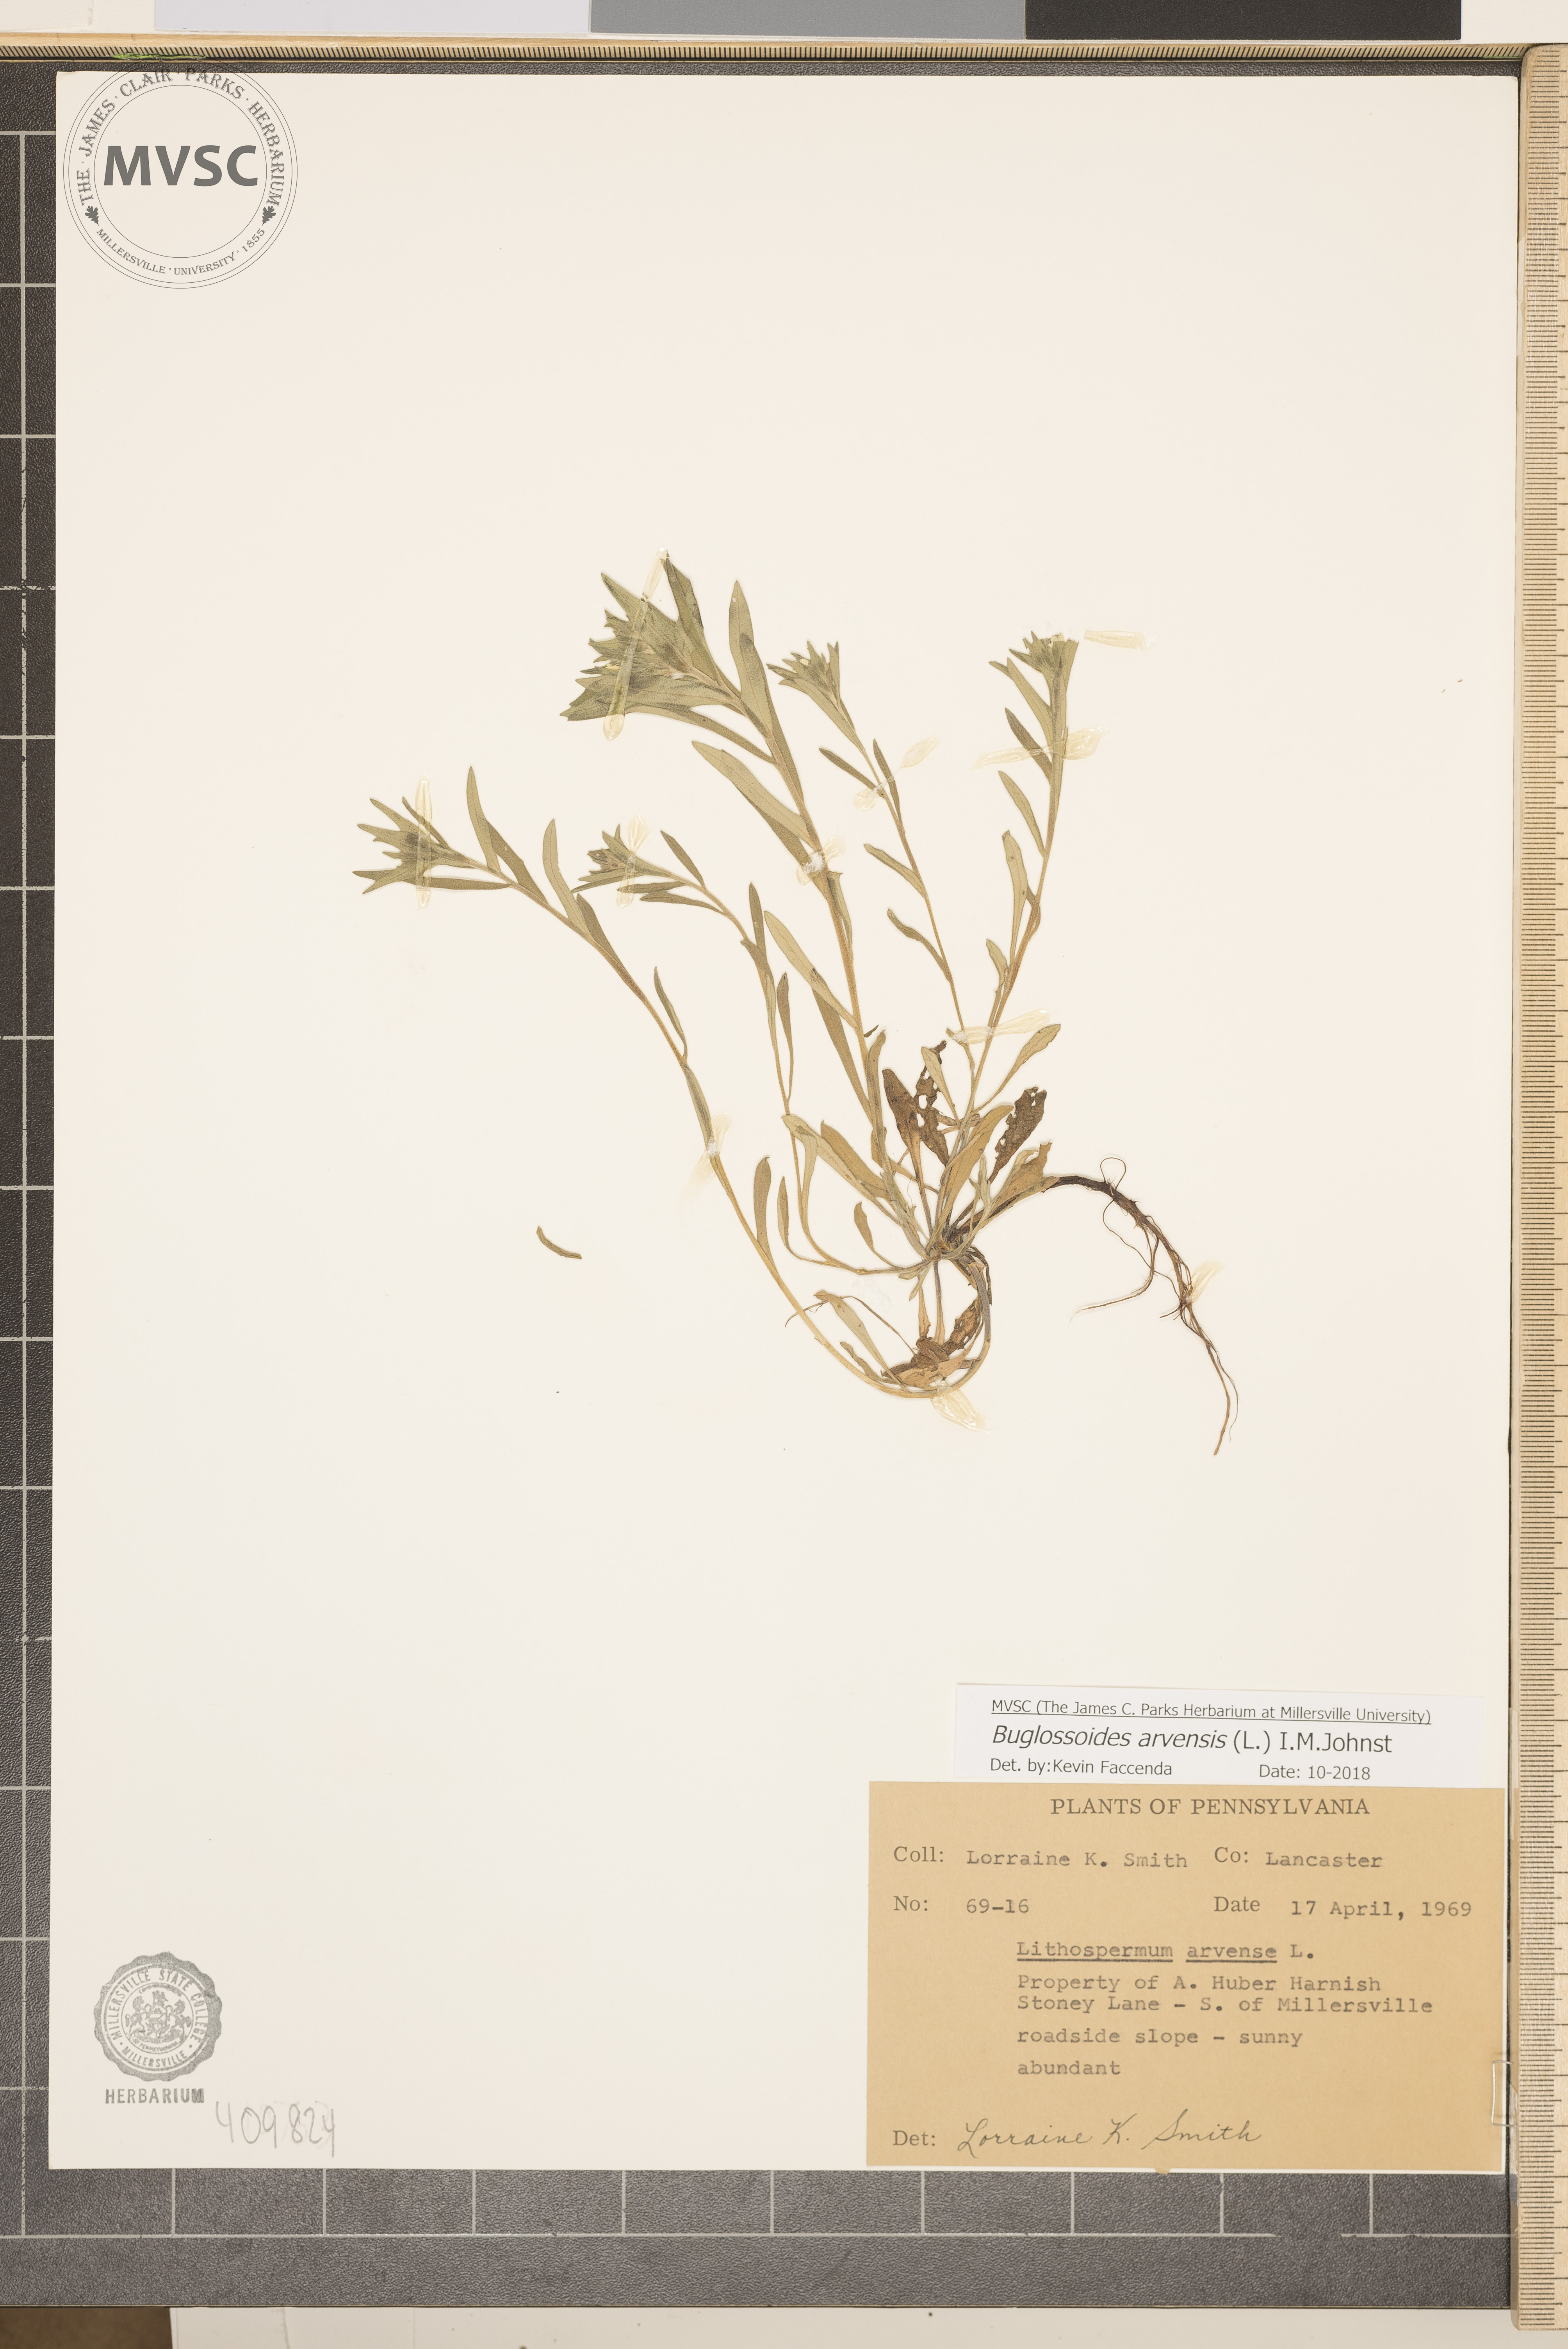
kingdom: Plantae
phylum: Tracheophyta
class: Magnoliopsida
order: Boraginales
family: Boraginaceae
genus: Buglossoides
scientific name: Buglossoides arvensis
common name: Corn gromwell
